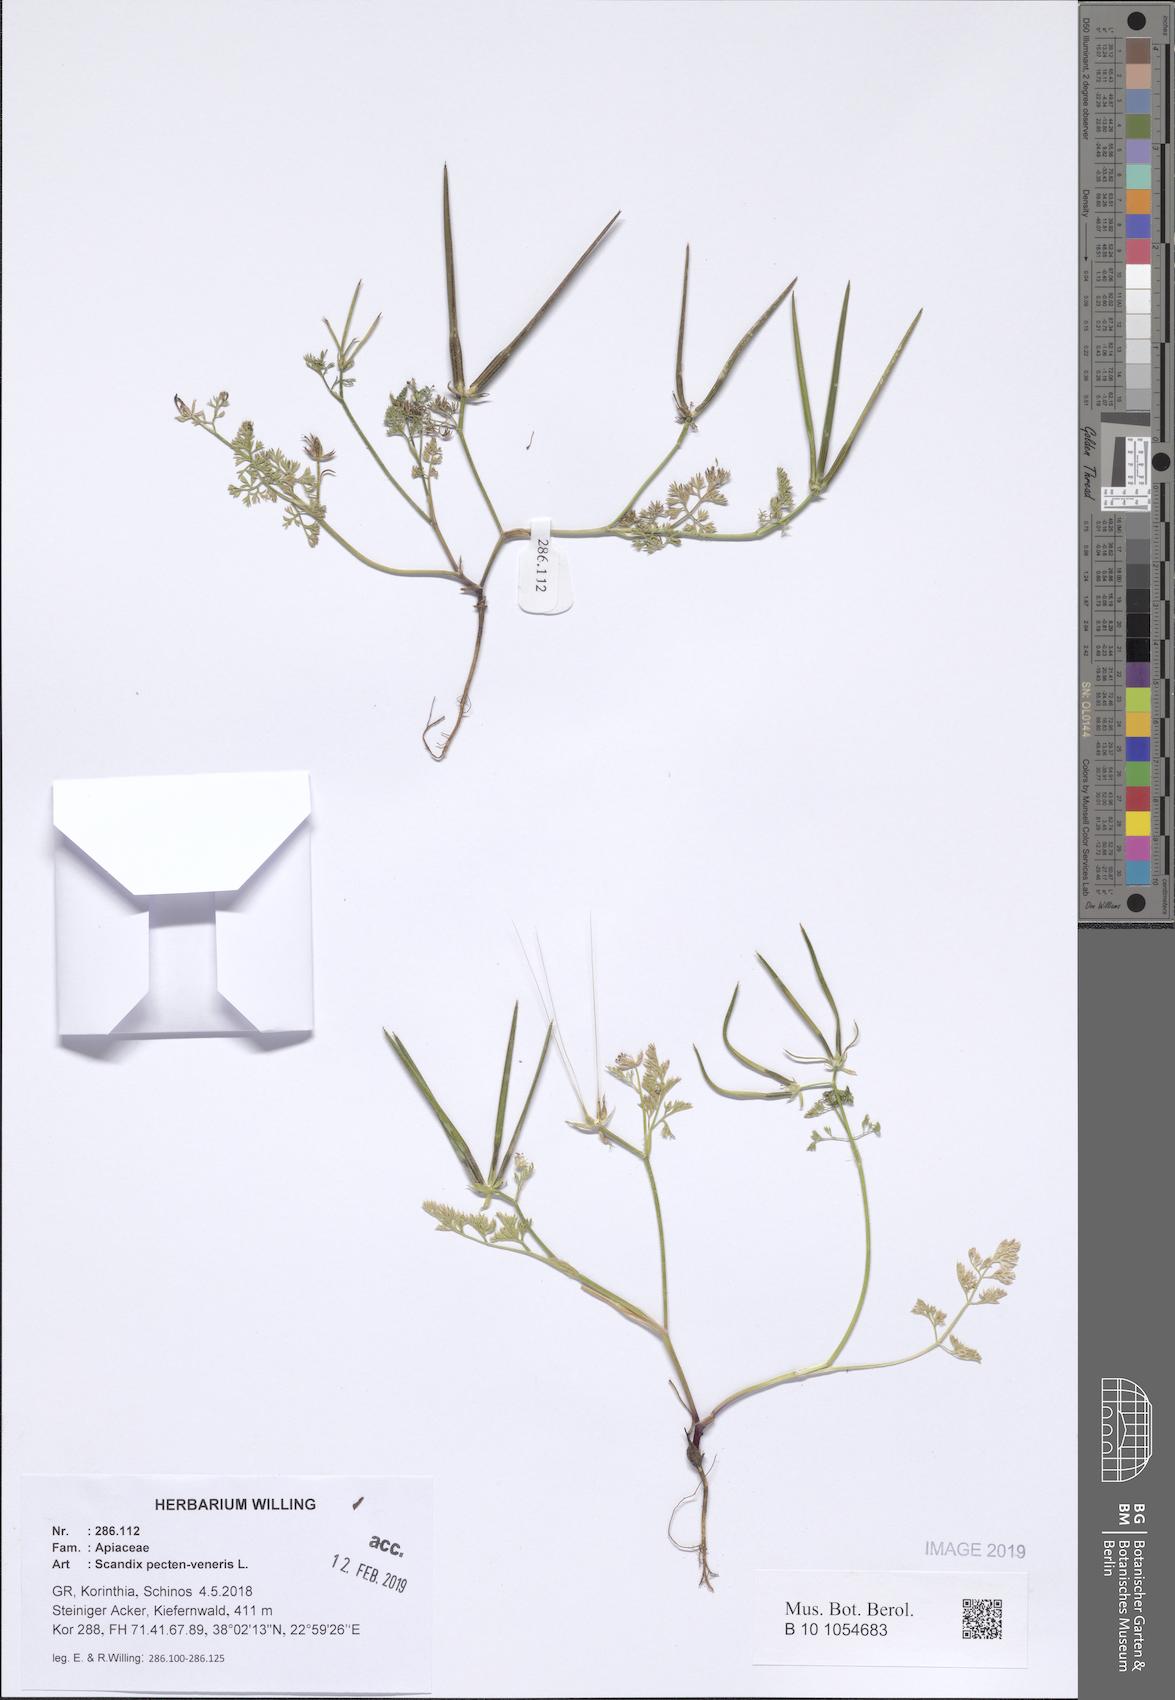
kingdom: Plantae
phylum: Tracheophyta
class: Magnoliopsida
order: Apiales
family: Apiaceae
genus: Scandix
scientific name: Scandix pecten-veneris
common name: Shepherd's-needle
